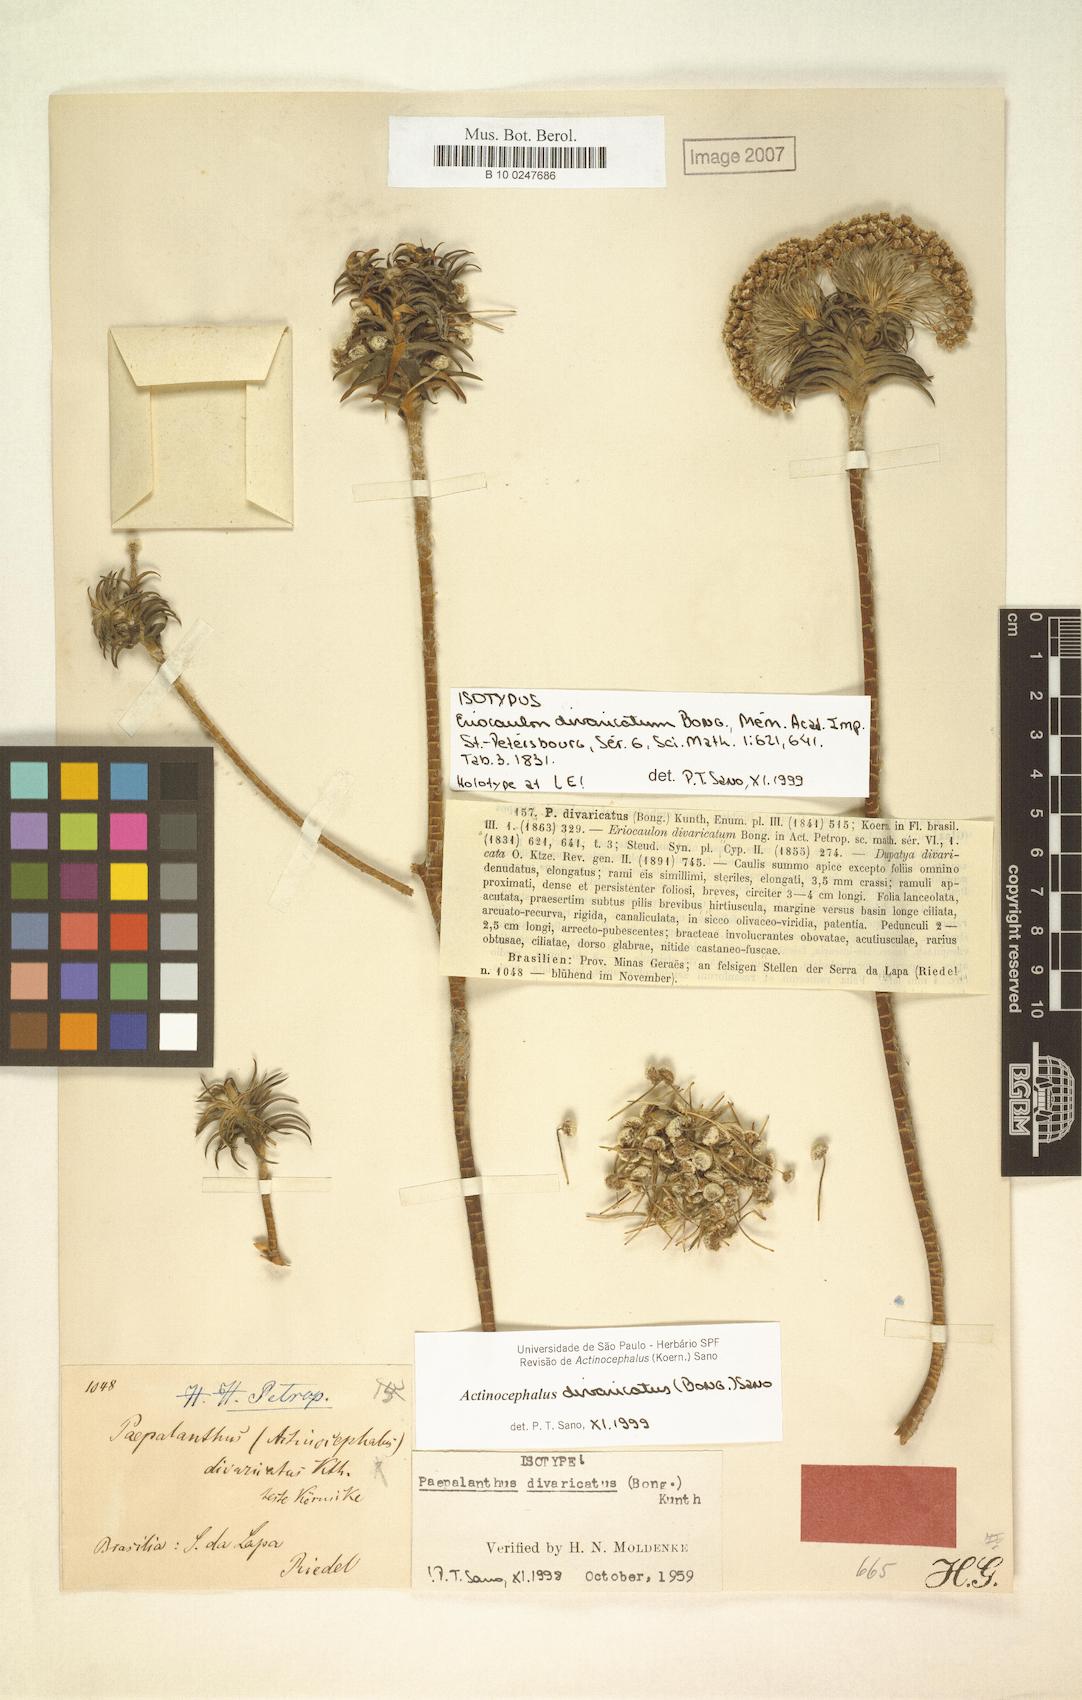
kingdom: Plantae
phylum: Tracheophyta
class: Liliopsida
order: Poales
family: Eriocaulaceae
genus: Paepalanthus
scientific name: Paepalanthus divaricatus
